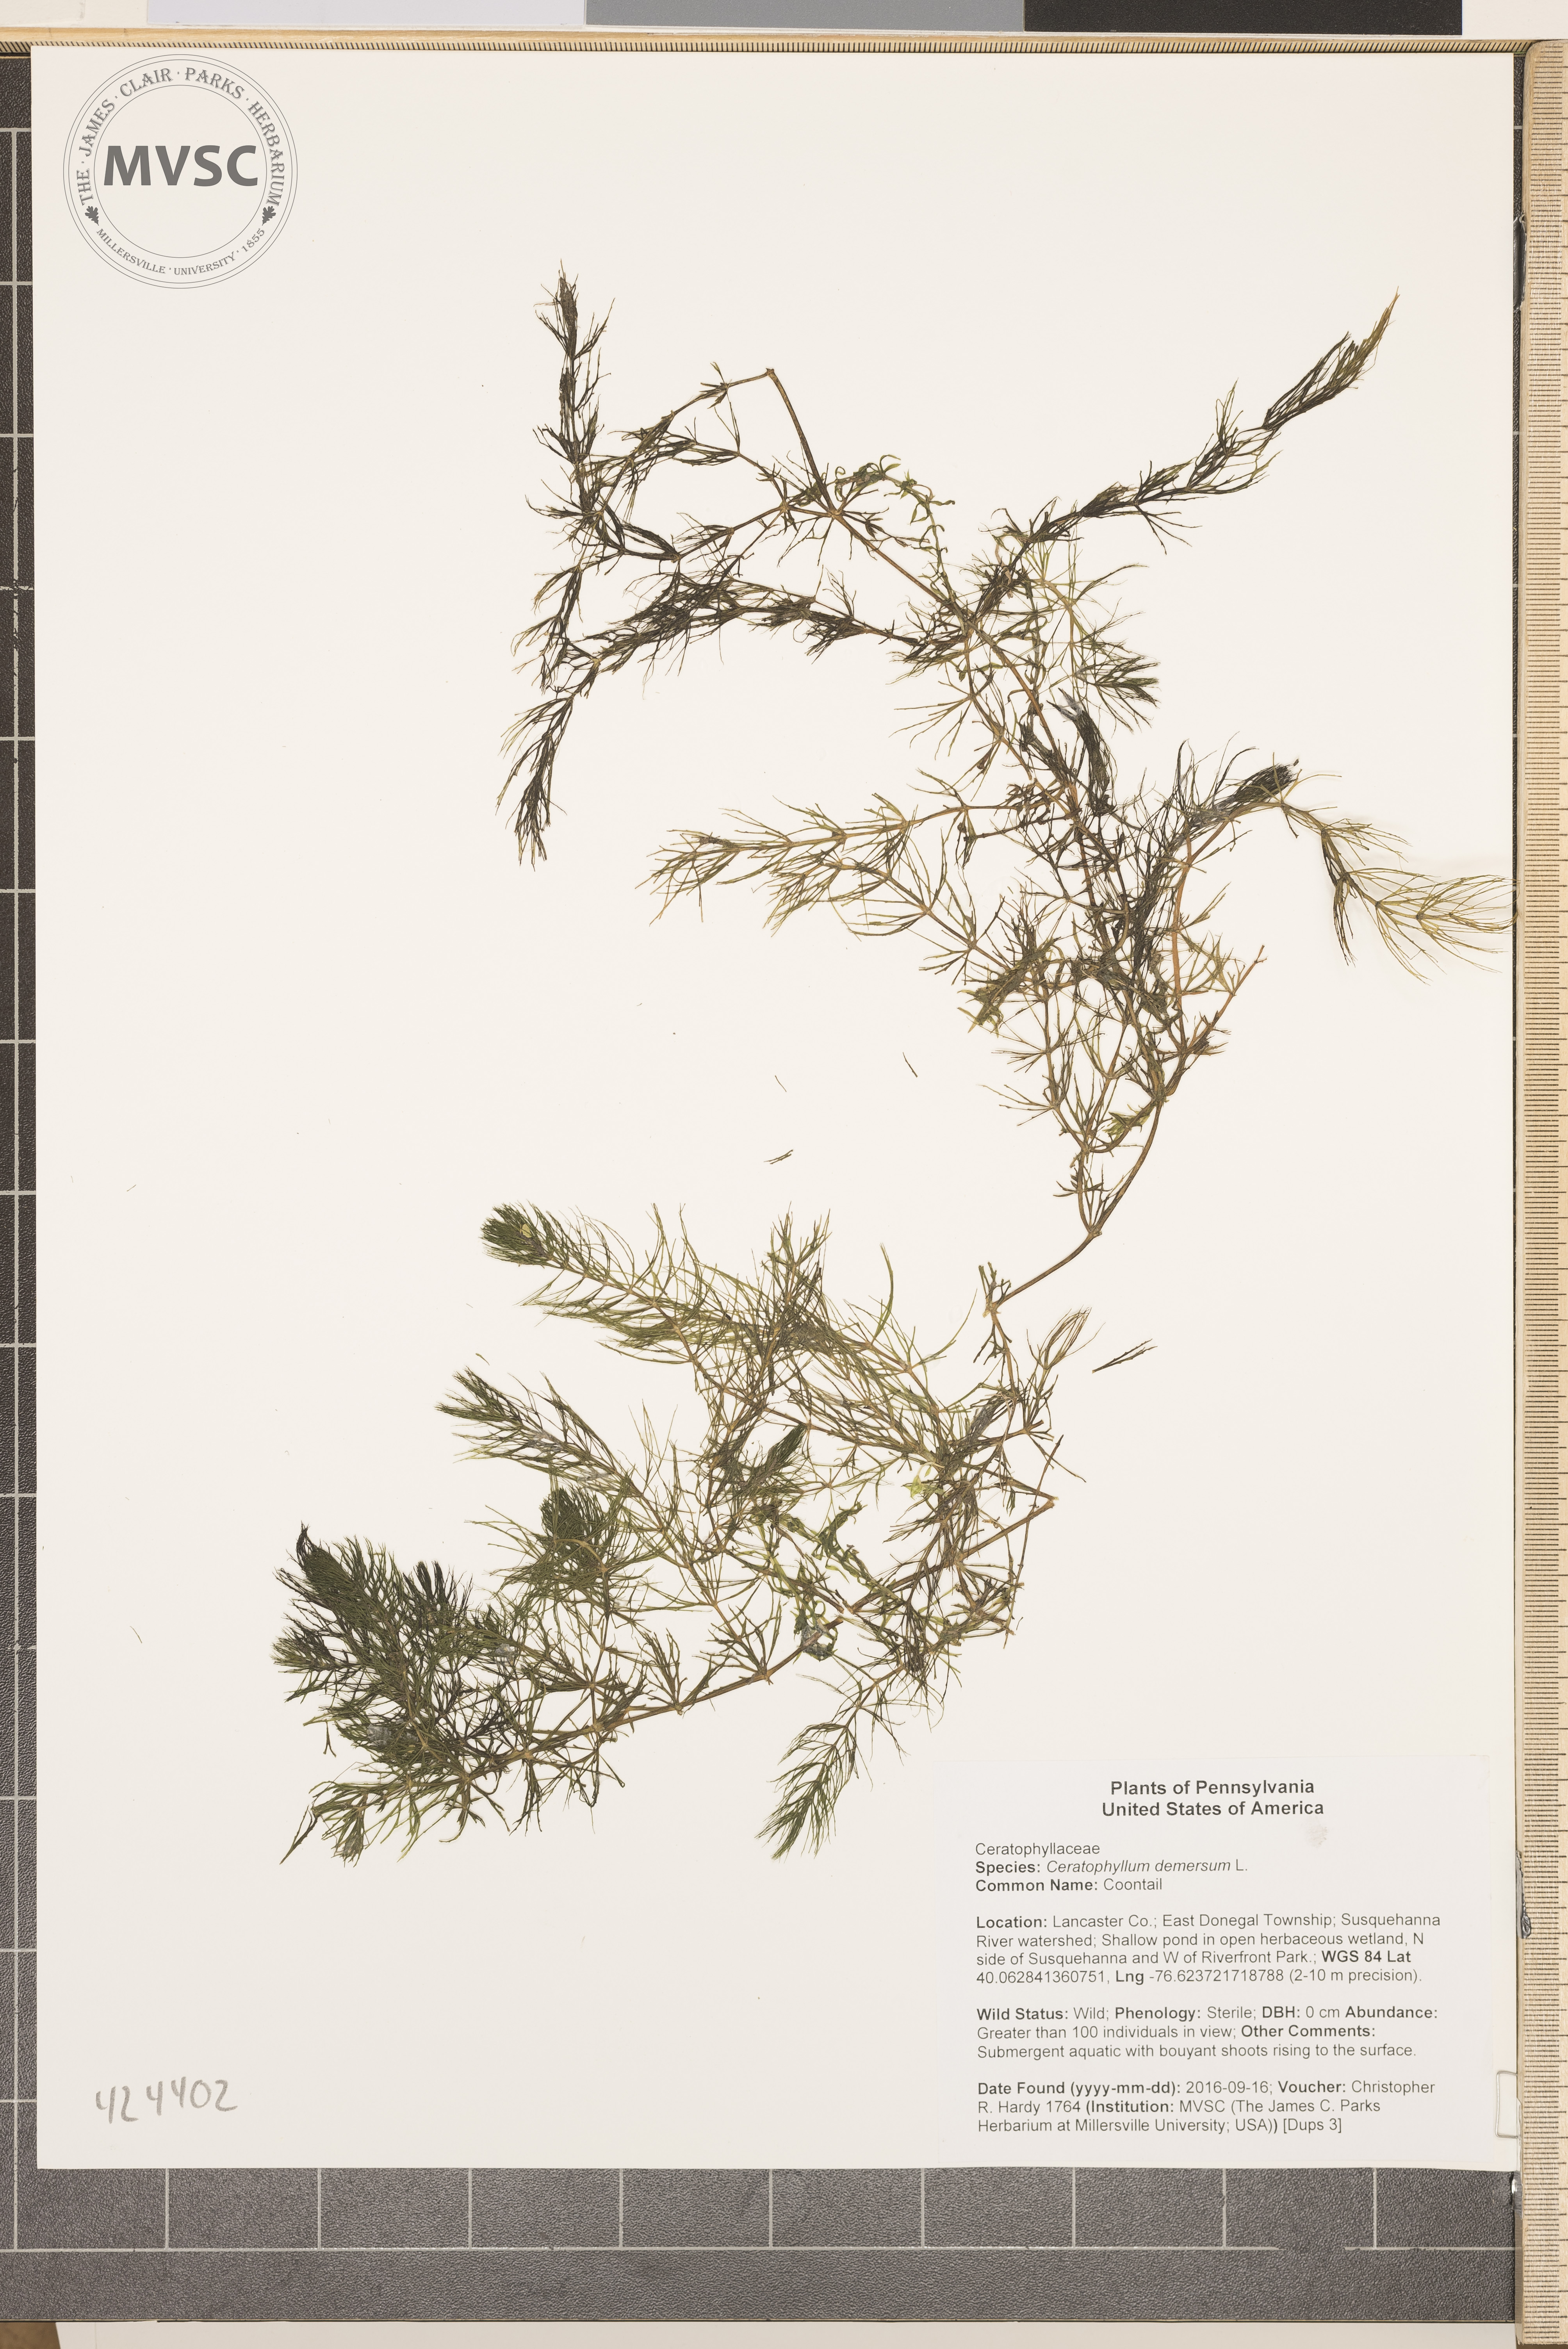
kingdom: Plantae
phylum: Tracheophyta
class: Magnoliopsida
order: Ceratophyllales
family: Ceratophyllaceae
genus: Ceratophyllum
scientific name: Ceratophyllum demersum
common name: Coontail
